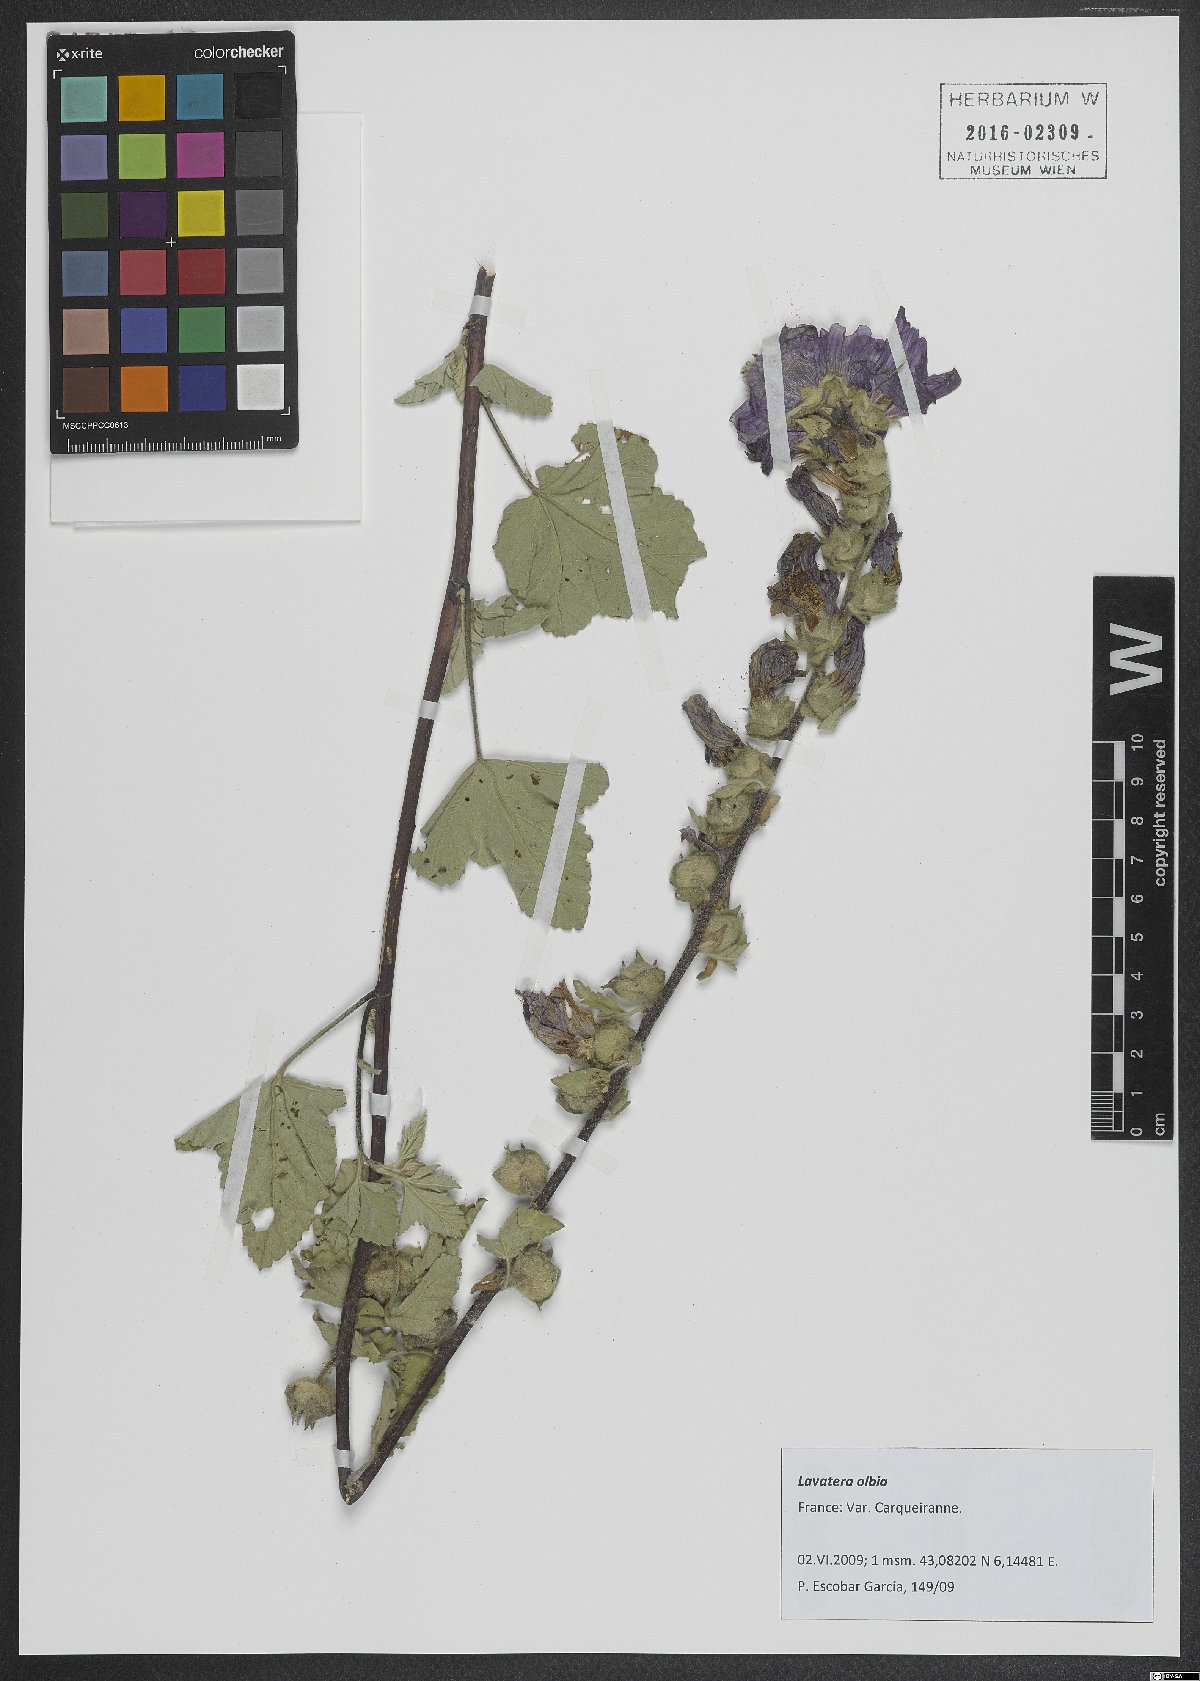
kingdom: Plantae
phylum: Tracheophyta
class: Magnoliopsida
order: Malvales
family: Malvaceae
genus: Malva
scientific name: Malva olbia
